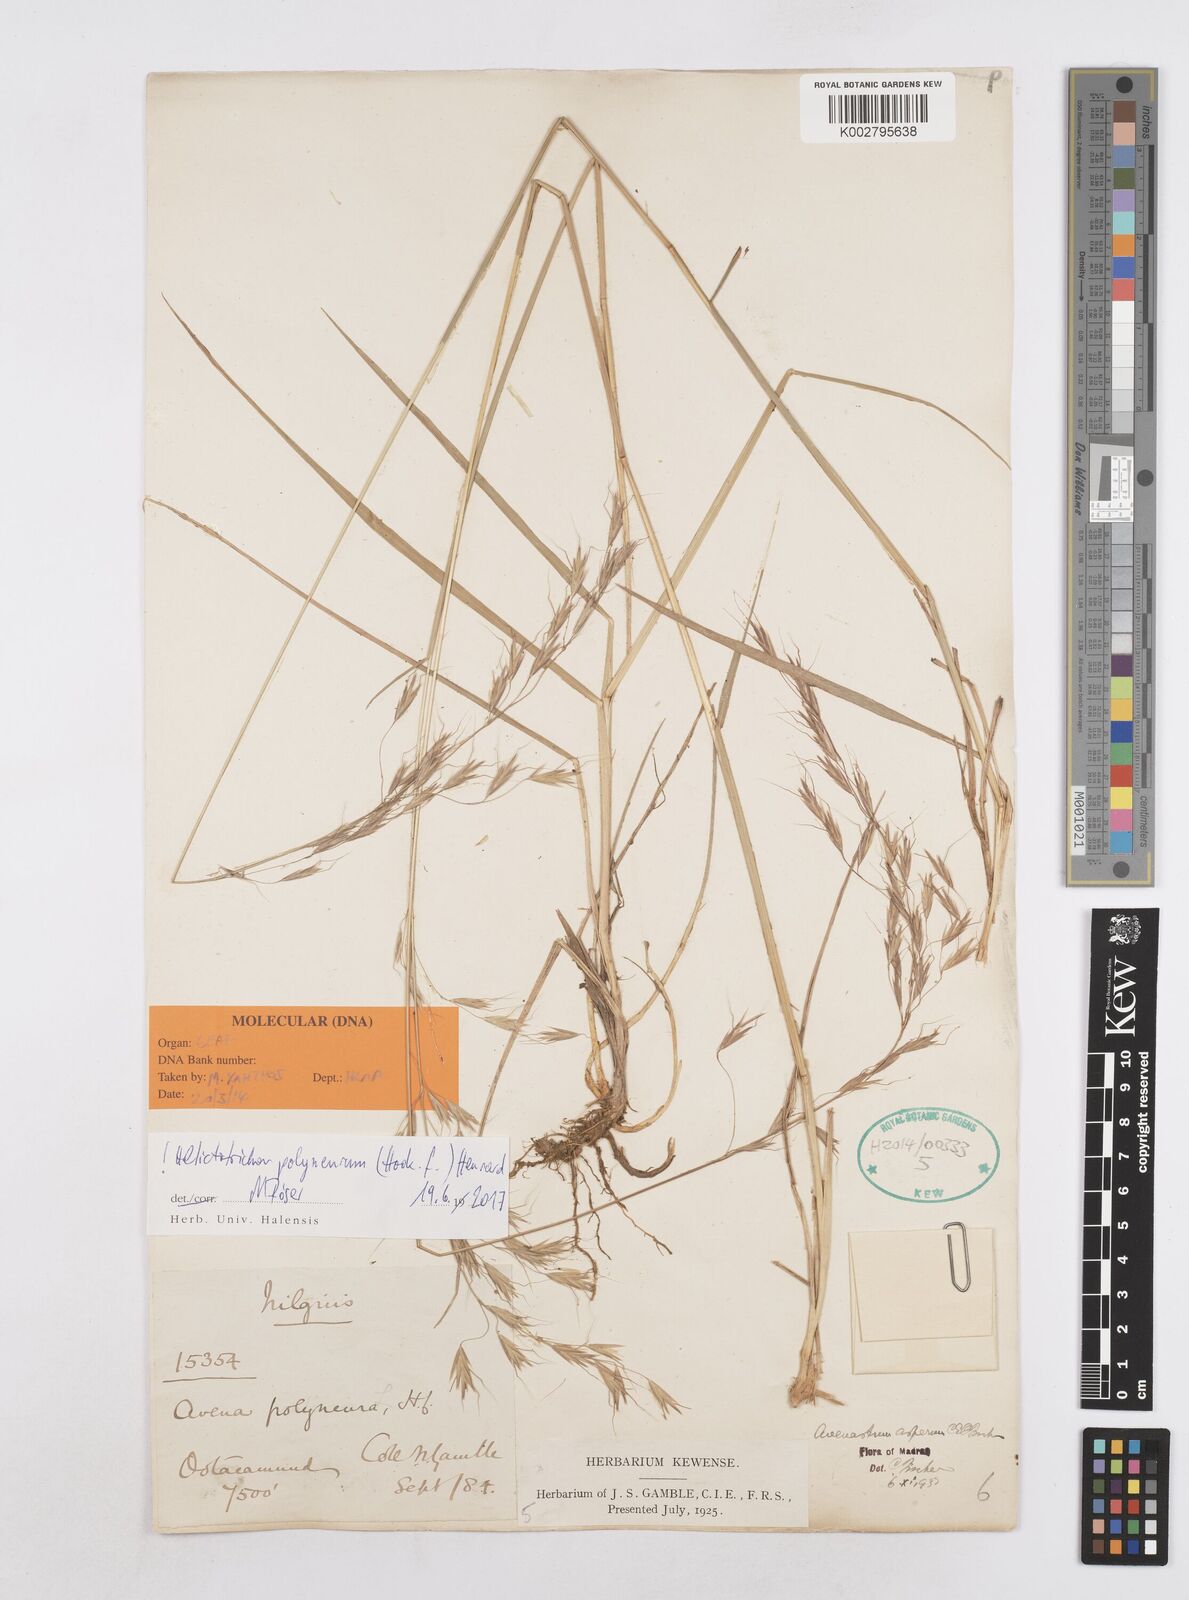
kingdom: Plantae
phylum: Tracheophyta
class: Liliopsida
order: Poales
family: Poaceae
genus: Helictotrichon
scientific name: Helictotrichon polyneurum
